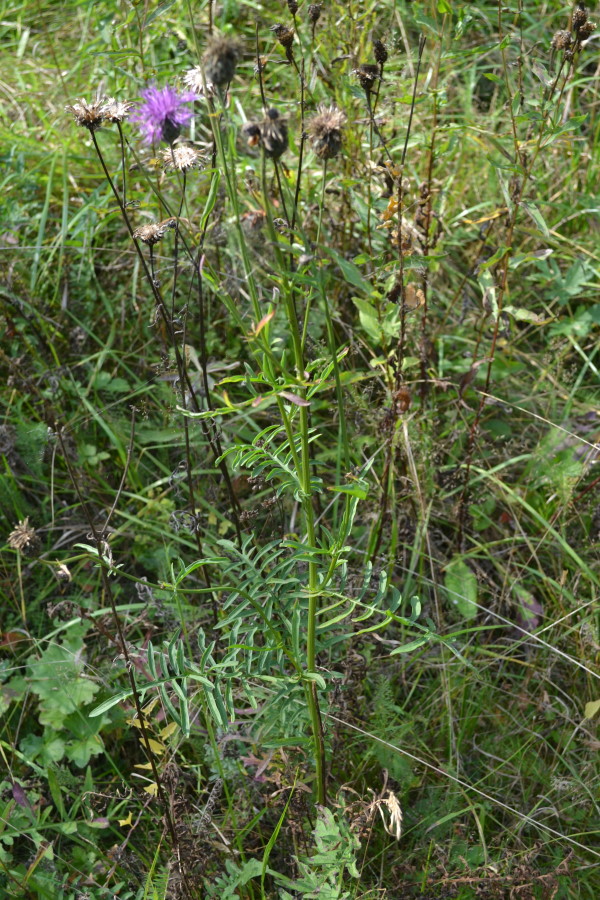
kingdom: Plantae
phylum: Tracheophyta
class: Magnoliopsida
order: Asterales
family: Asteraceae
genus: Centaurea
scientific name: Centaurea phrygia
